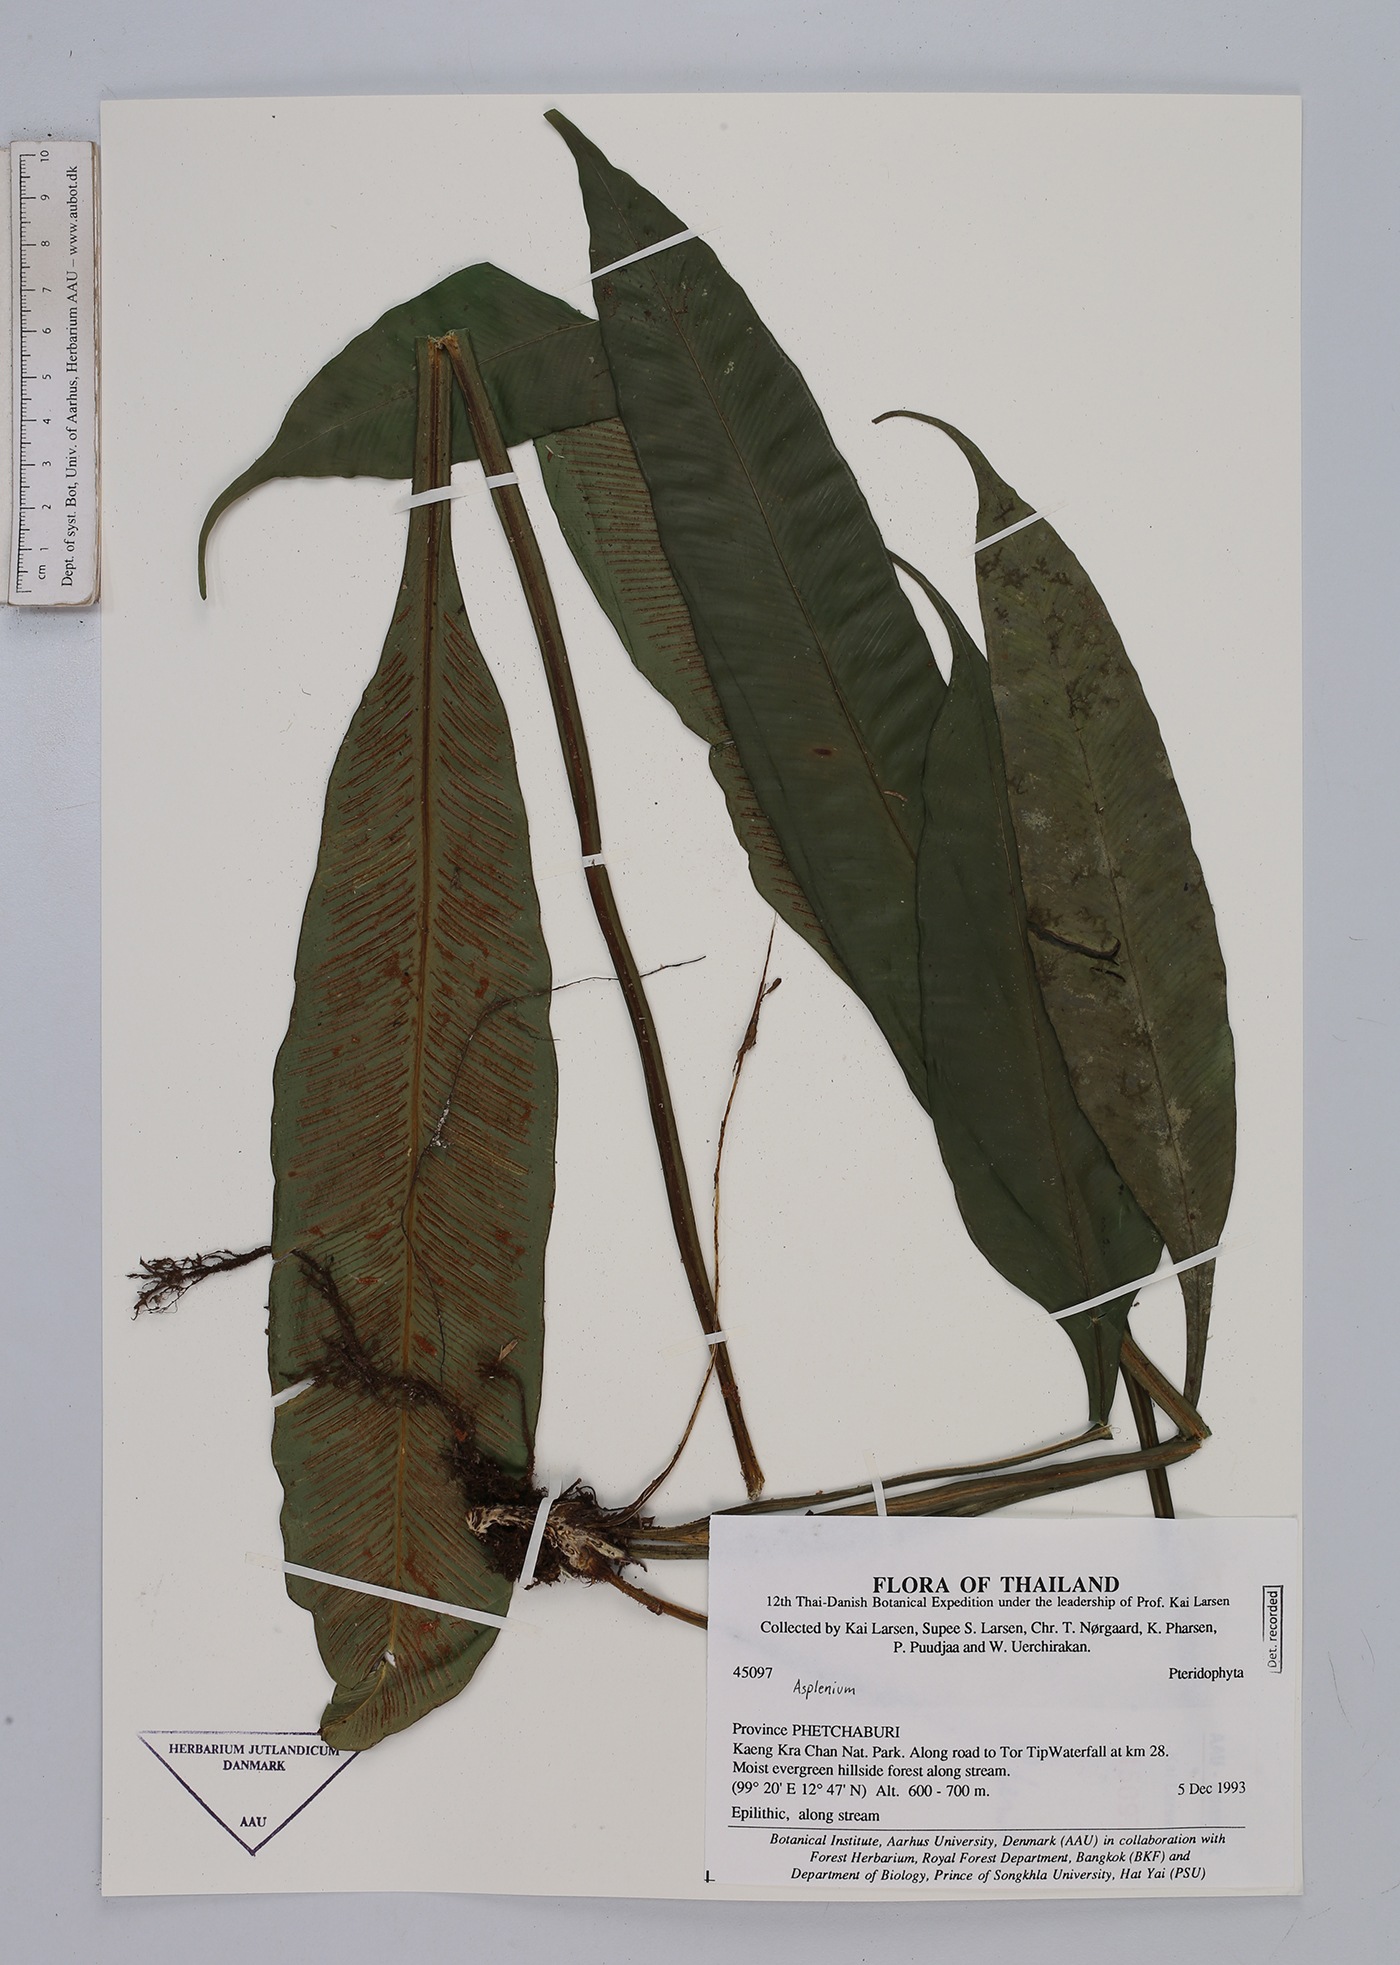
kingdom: Plantae
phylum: Tracheophyta
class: Polypodiopsida
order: Polypodiales
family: Aspleniaceae
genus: Asplenium
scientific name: Asplenium
